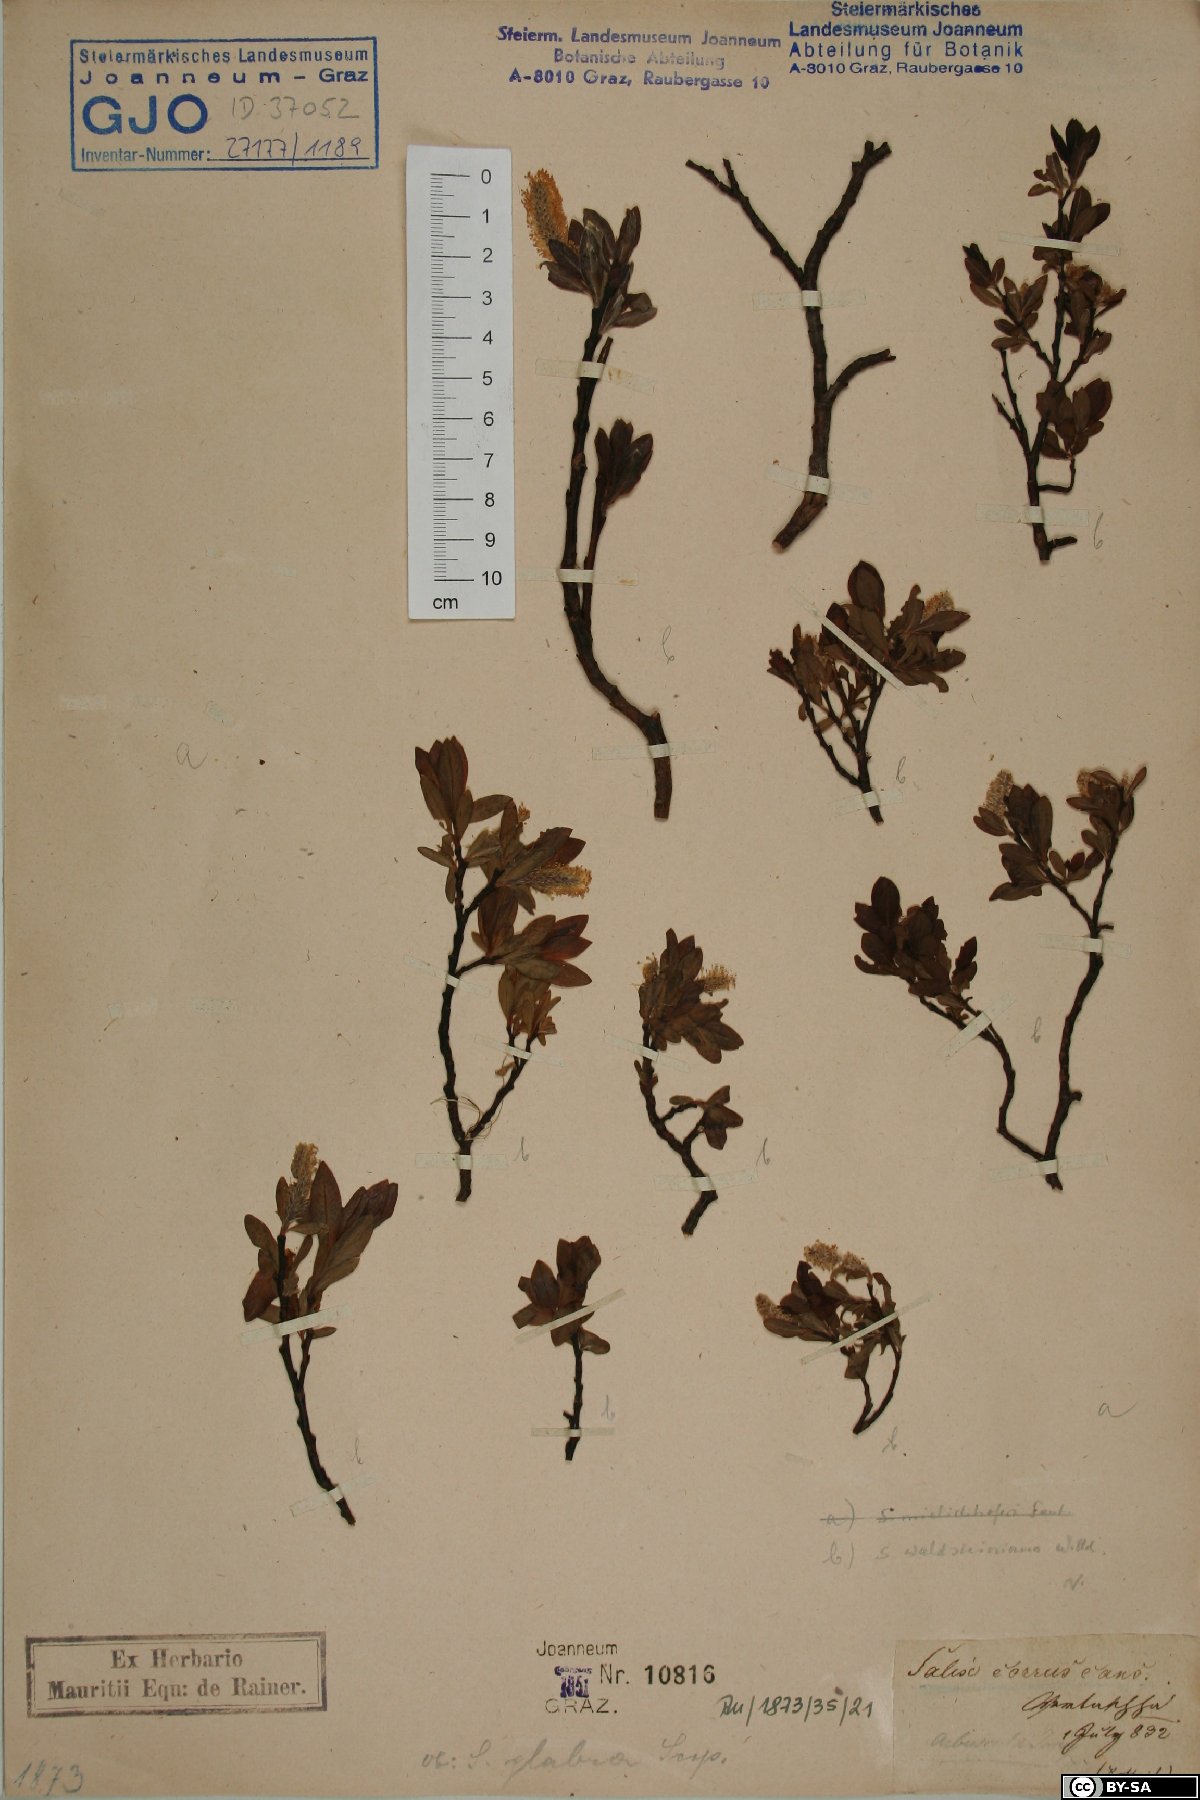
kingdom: Plantae
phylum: Tracheophyta
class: Magnoliopsida
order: Malpighiales
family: Salicaceae
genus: Salix
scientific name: Salix waldsteiniana
